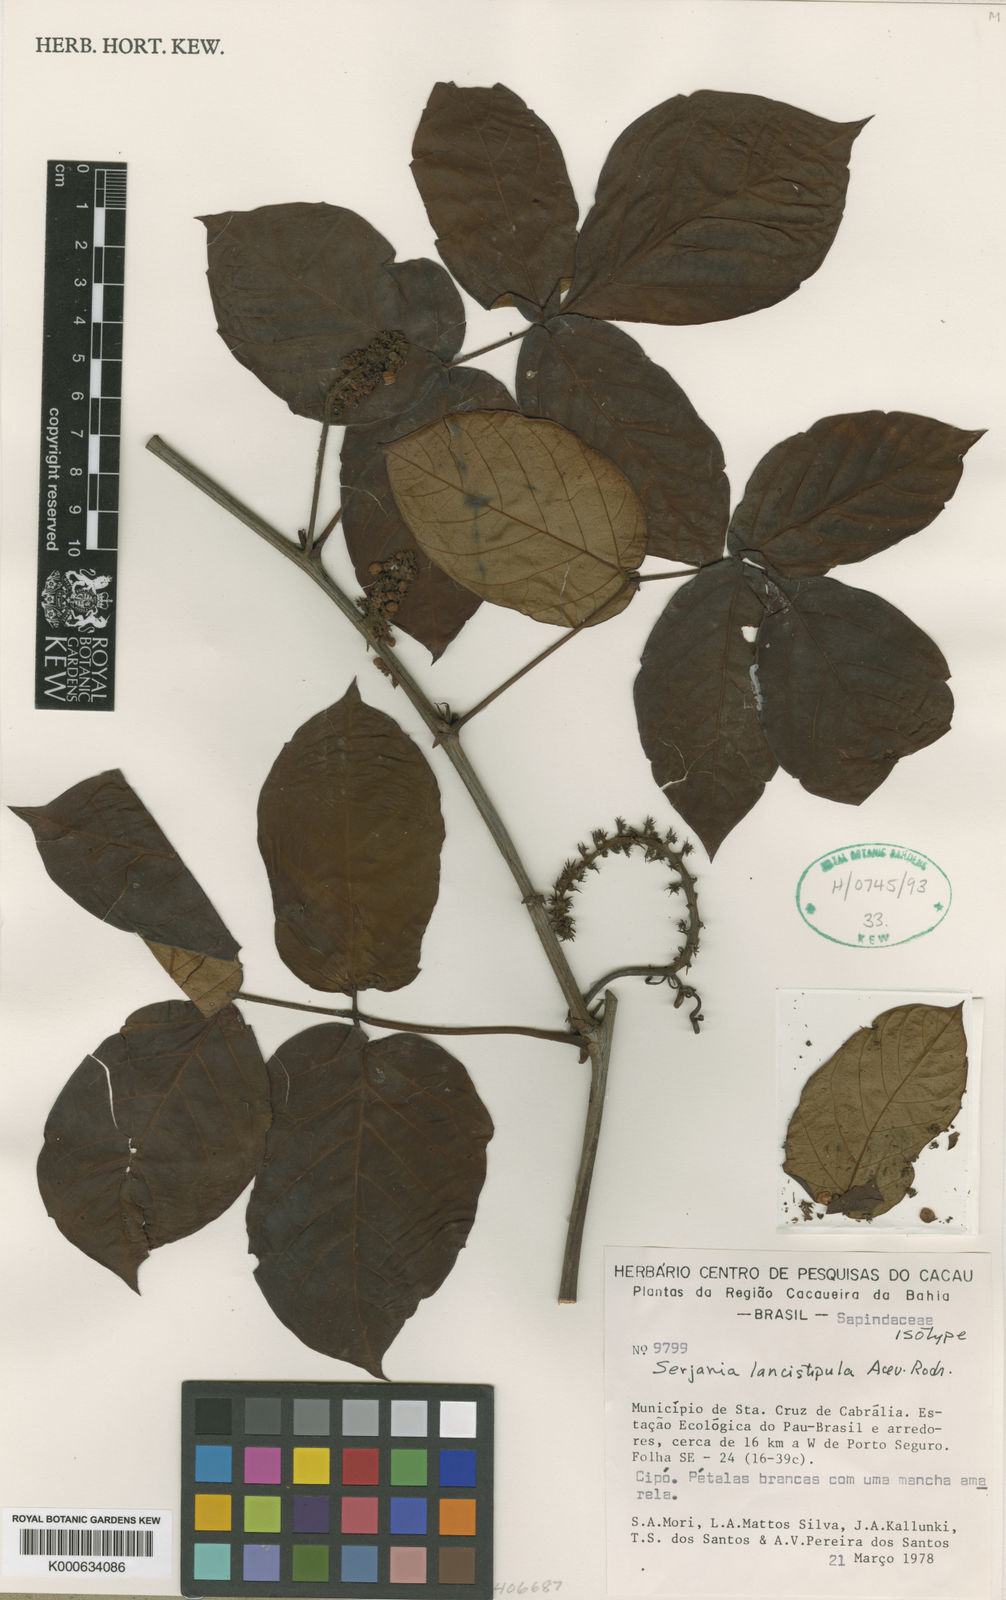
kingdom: Plantae
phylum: Tracheophyta
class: Magnoliopsida
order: Sapindales
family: Sapindaceae
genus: Serjania
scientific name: Serjania lancistipula
